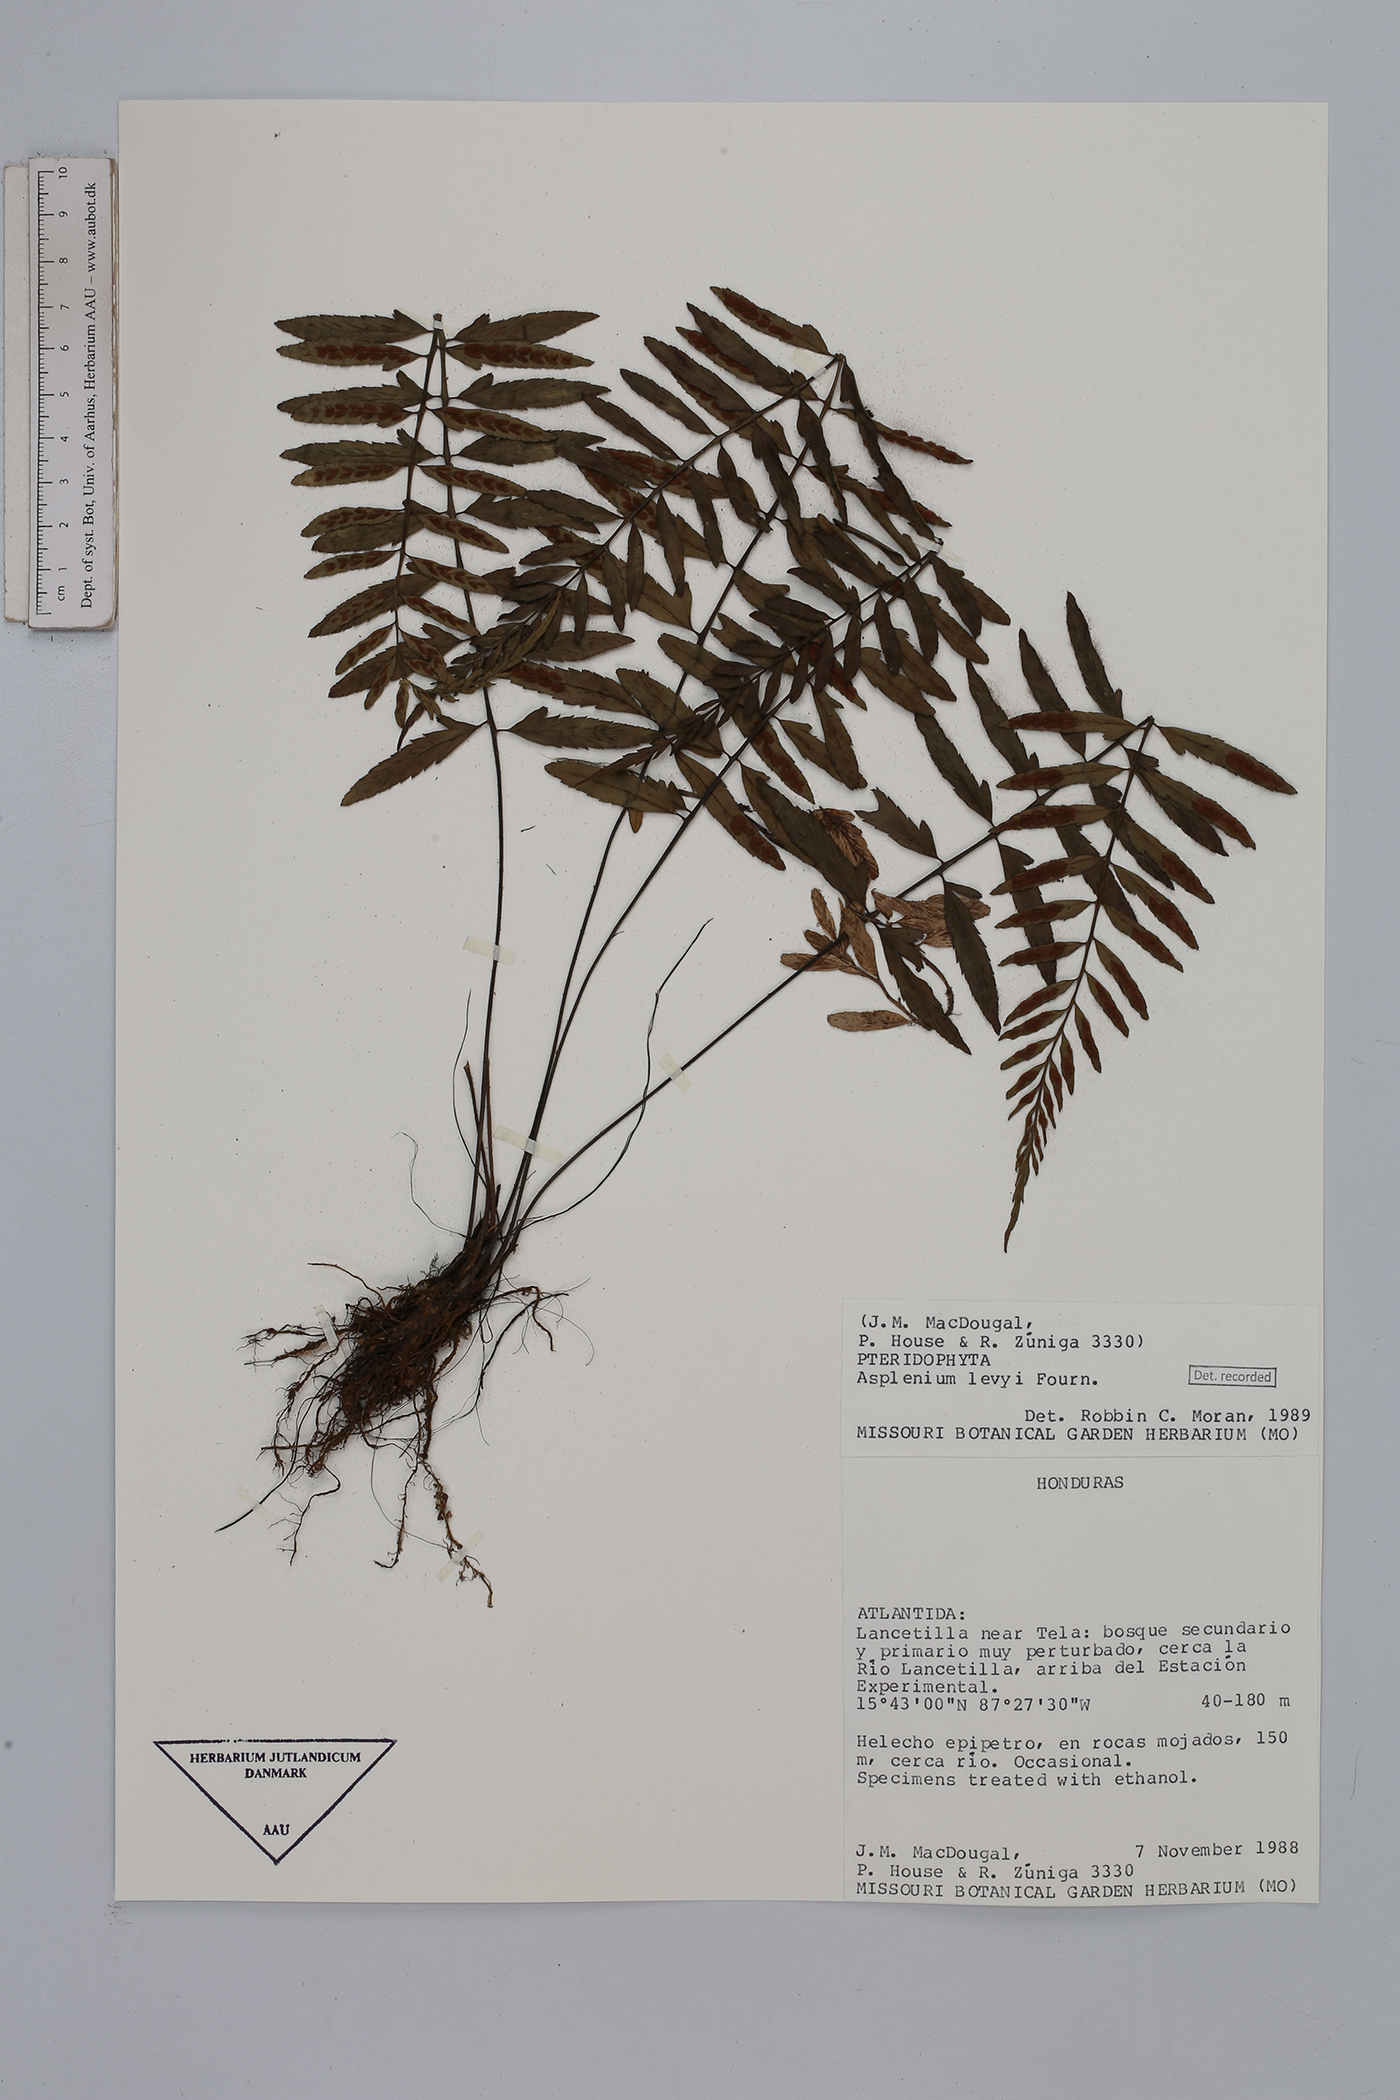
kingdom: Plantae
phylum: Tracheophyta
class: Polypodiopsida
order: Polypodiales
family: Aspleniaceae
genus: Asplenium
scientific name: Asplenium auritum
